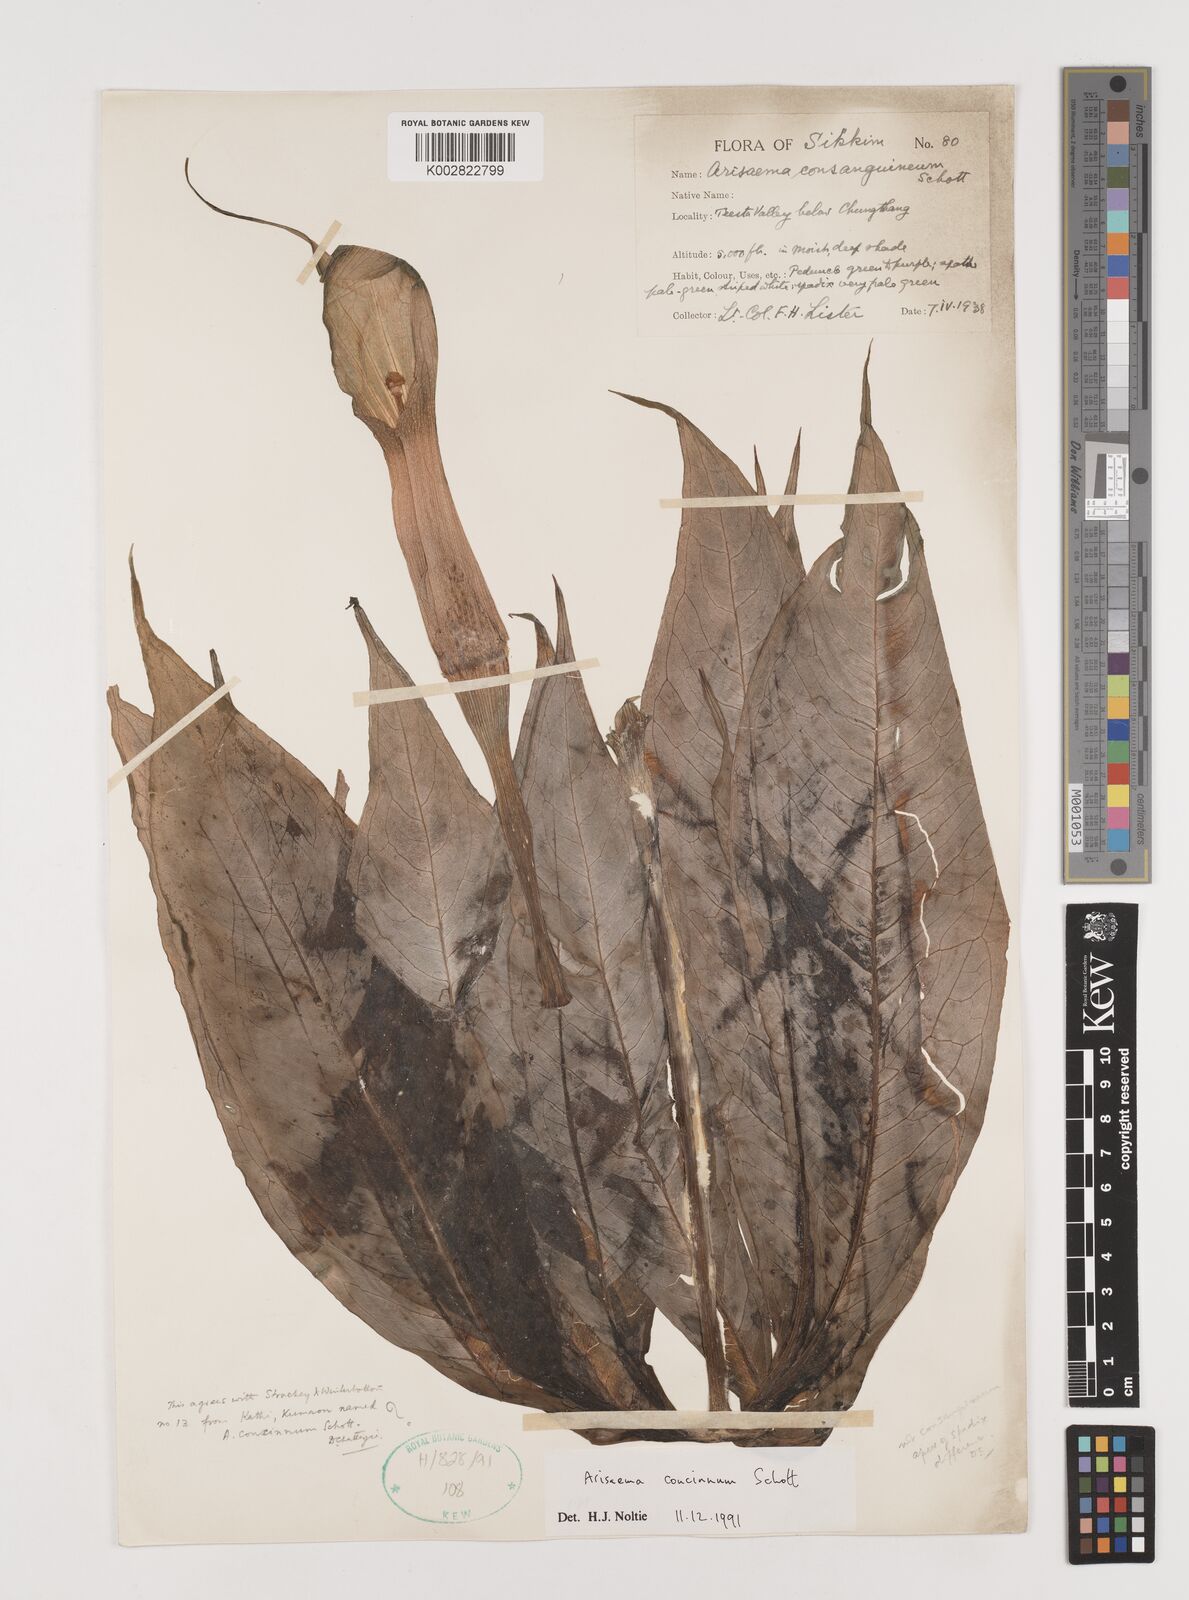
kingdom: Plantae
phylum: Tracheophyta
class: Liliopsida
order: Alismatales
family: Araceae
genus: Arisaema
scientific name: Arisaema concinnum
